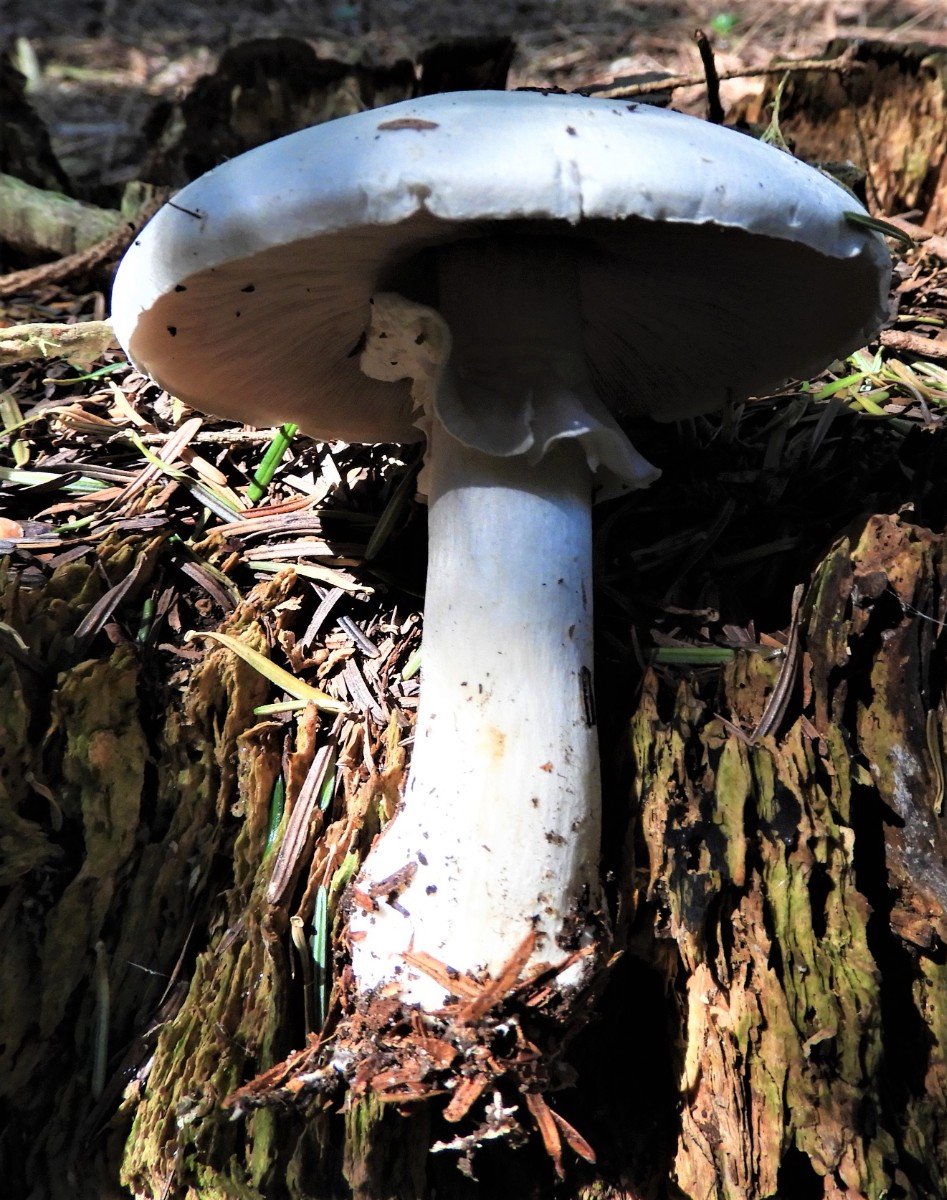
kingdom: Fungi
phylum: Basidiomycota
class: Agaricomycetes
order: Agaricales
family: Agaricaceae
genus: Agaricus
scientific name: Agaricus sylvicola
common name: gulhvid champignon
